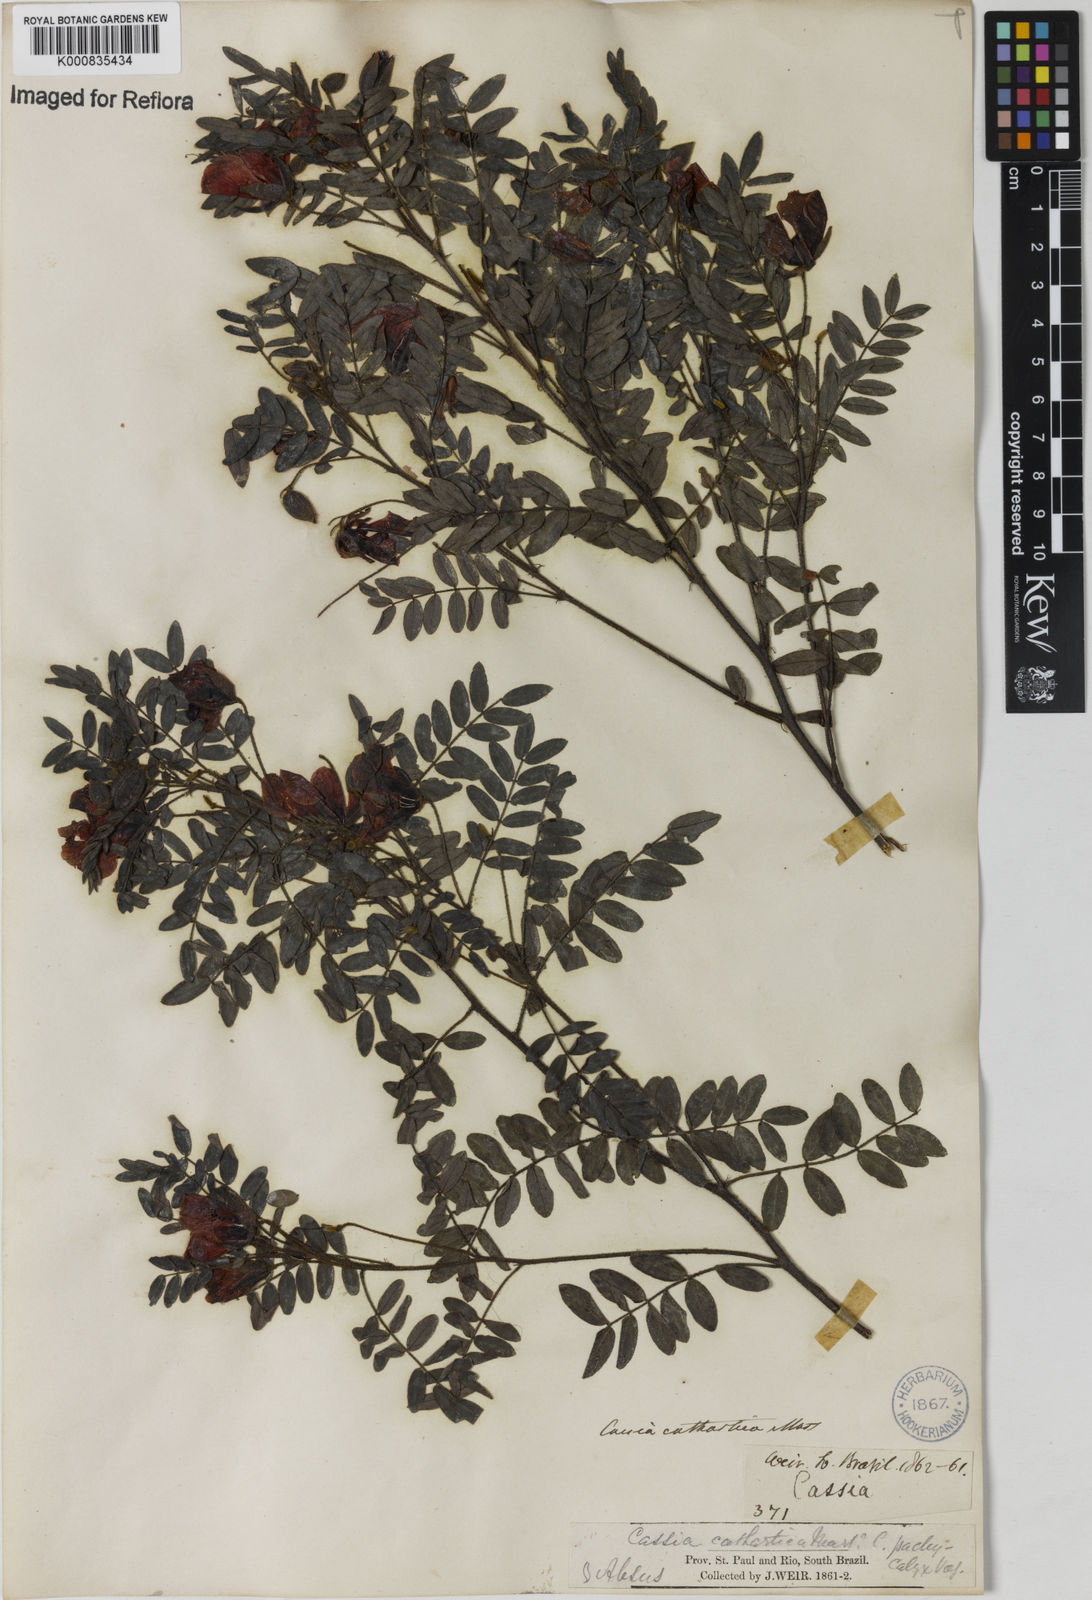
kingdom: Plantae
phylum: Tracheophyta
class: Magnoliopsida
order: Fabales
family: Fabaceae
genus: Chamaecrista
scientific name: Chamaecrista cathartica
